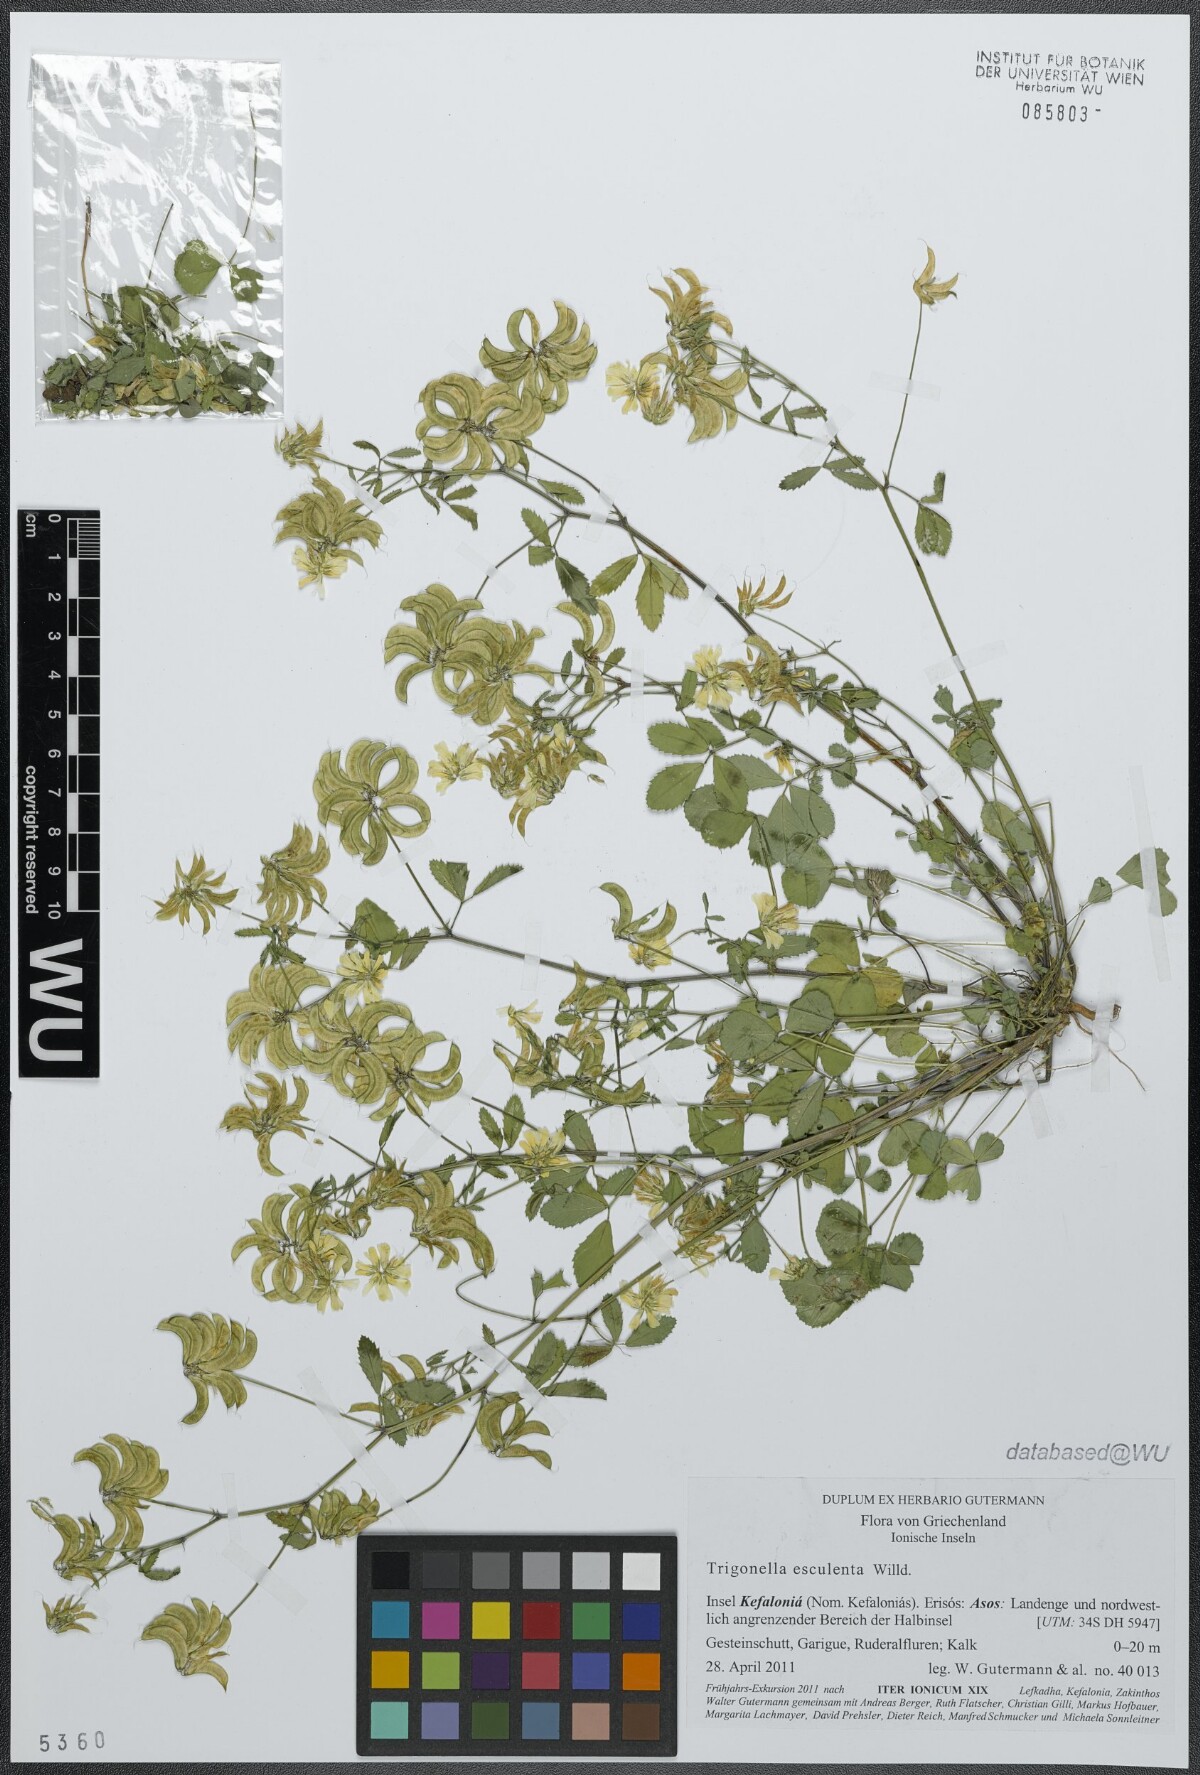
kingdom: Plantae
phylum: Tracheophyta
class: Magnoliopsida
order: Fabales
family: Fabaceae
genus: Trigonella
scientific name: Trigonella balansae
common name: Sickle-fruited fenugreek
